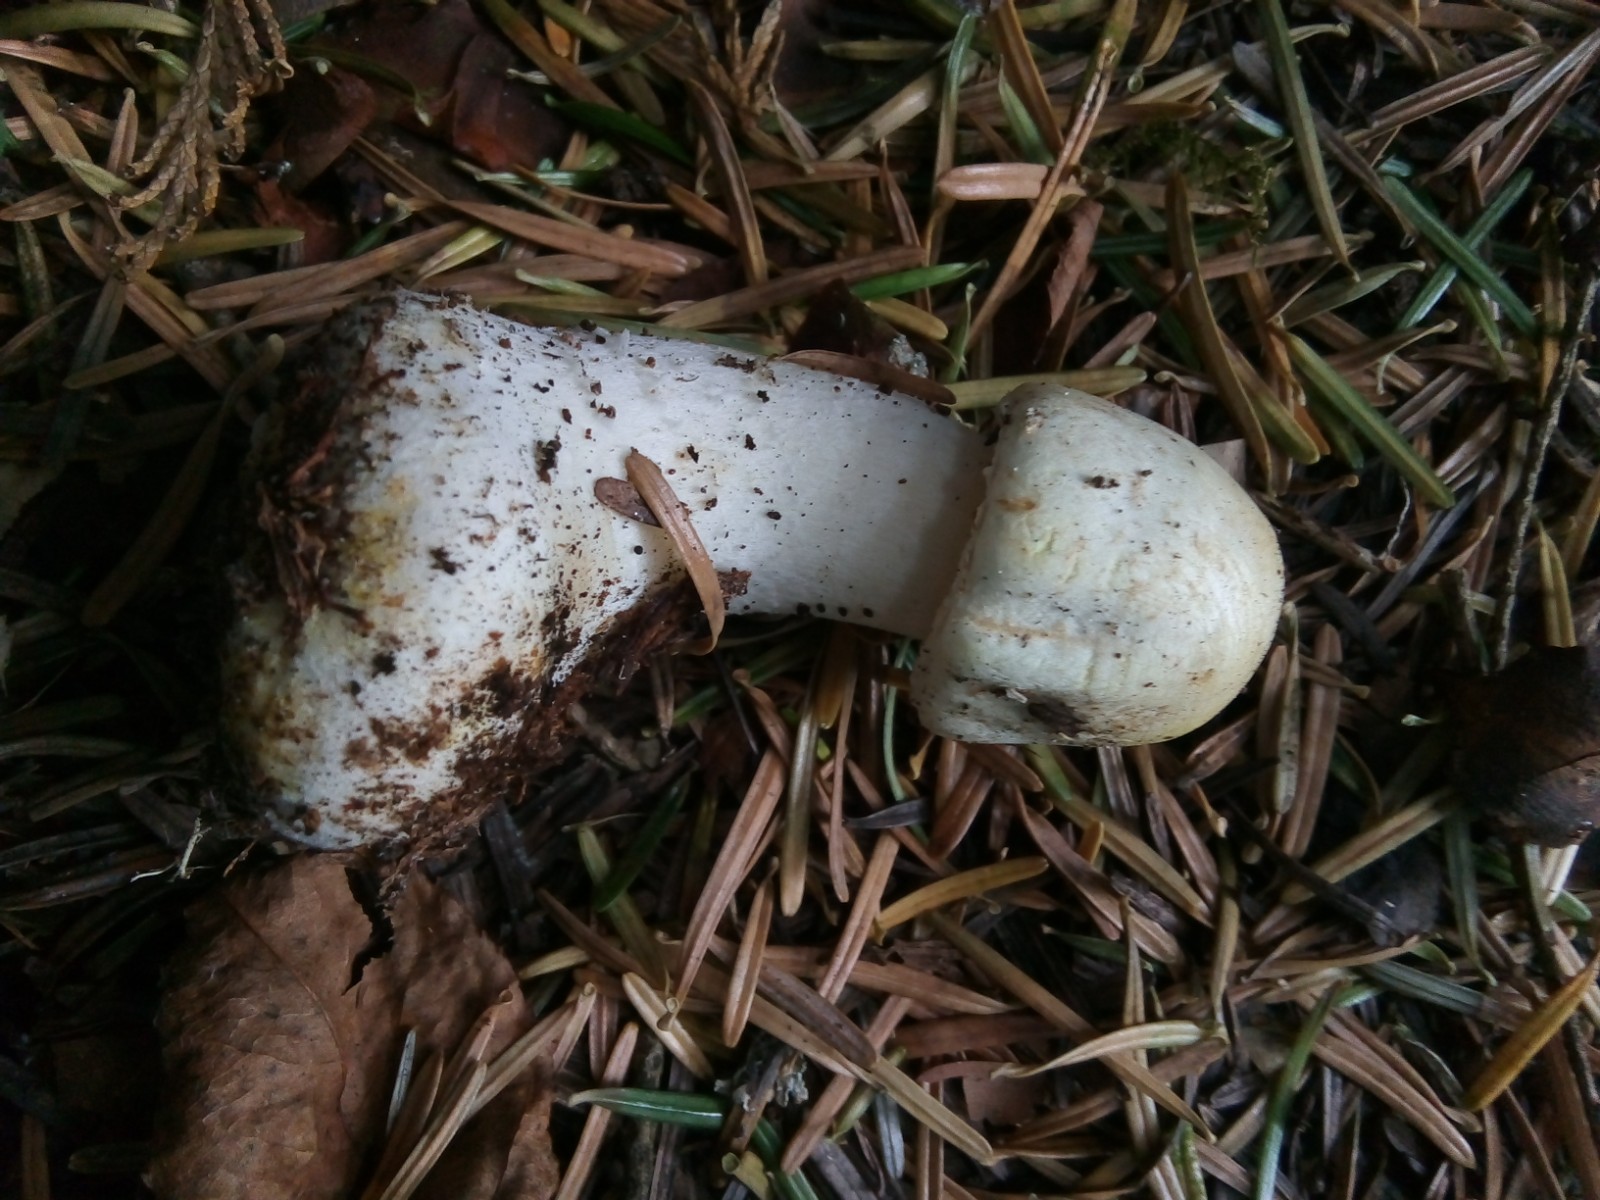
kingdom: Fungi
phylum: Basidiomycota
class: Agaricomycetes
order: Agaricales
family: Agaricaceae
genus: Agaricus
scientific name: Agaricus sylvicola
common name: gulhvid champignon
